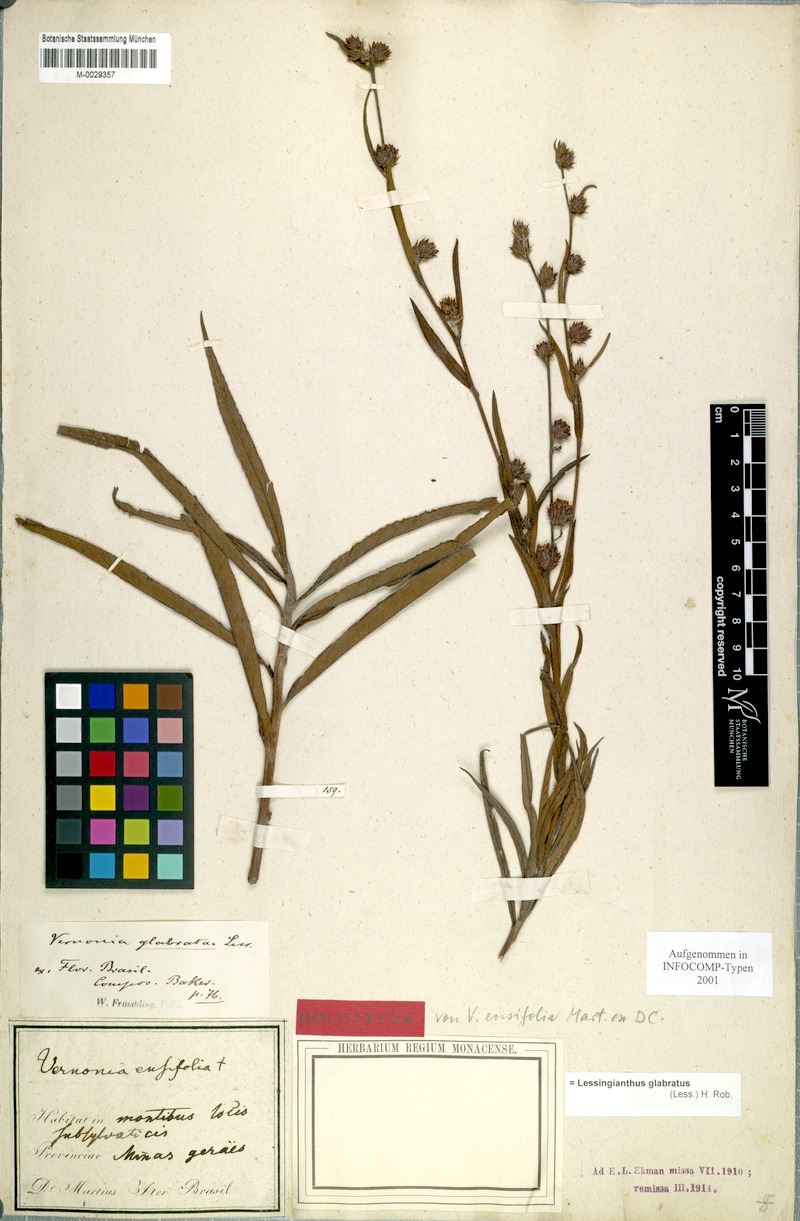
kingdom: Plantae
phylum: Tracheophyta
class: Magnoliopsida
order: Asterales
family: Asteraceae
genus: Lessingianthus
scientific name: Lessingianthus glabratus
